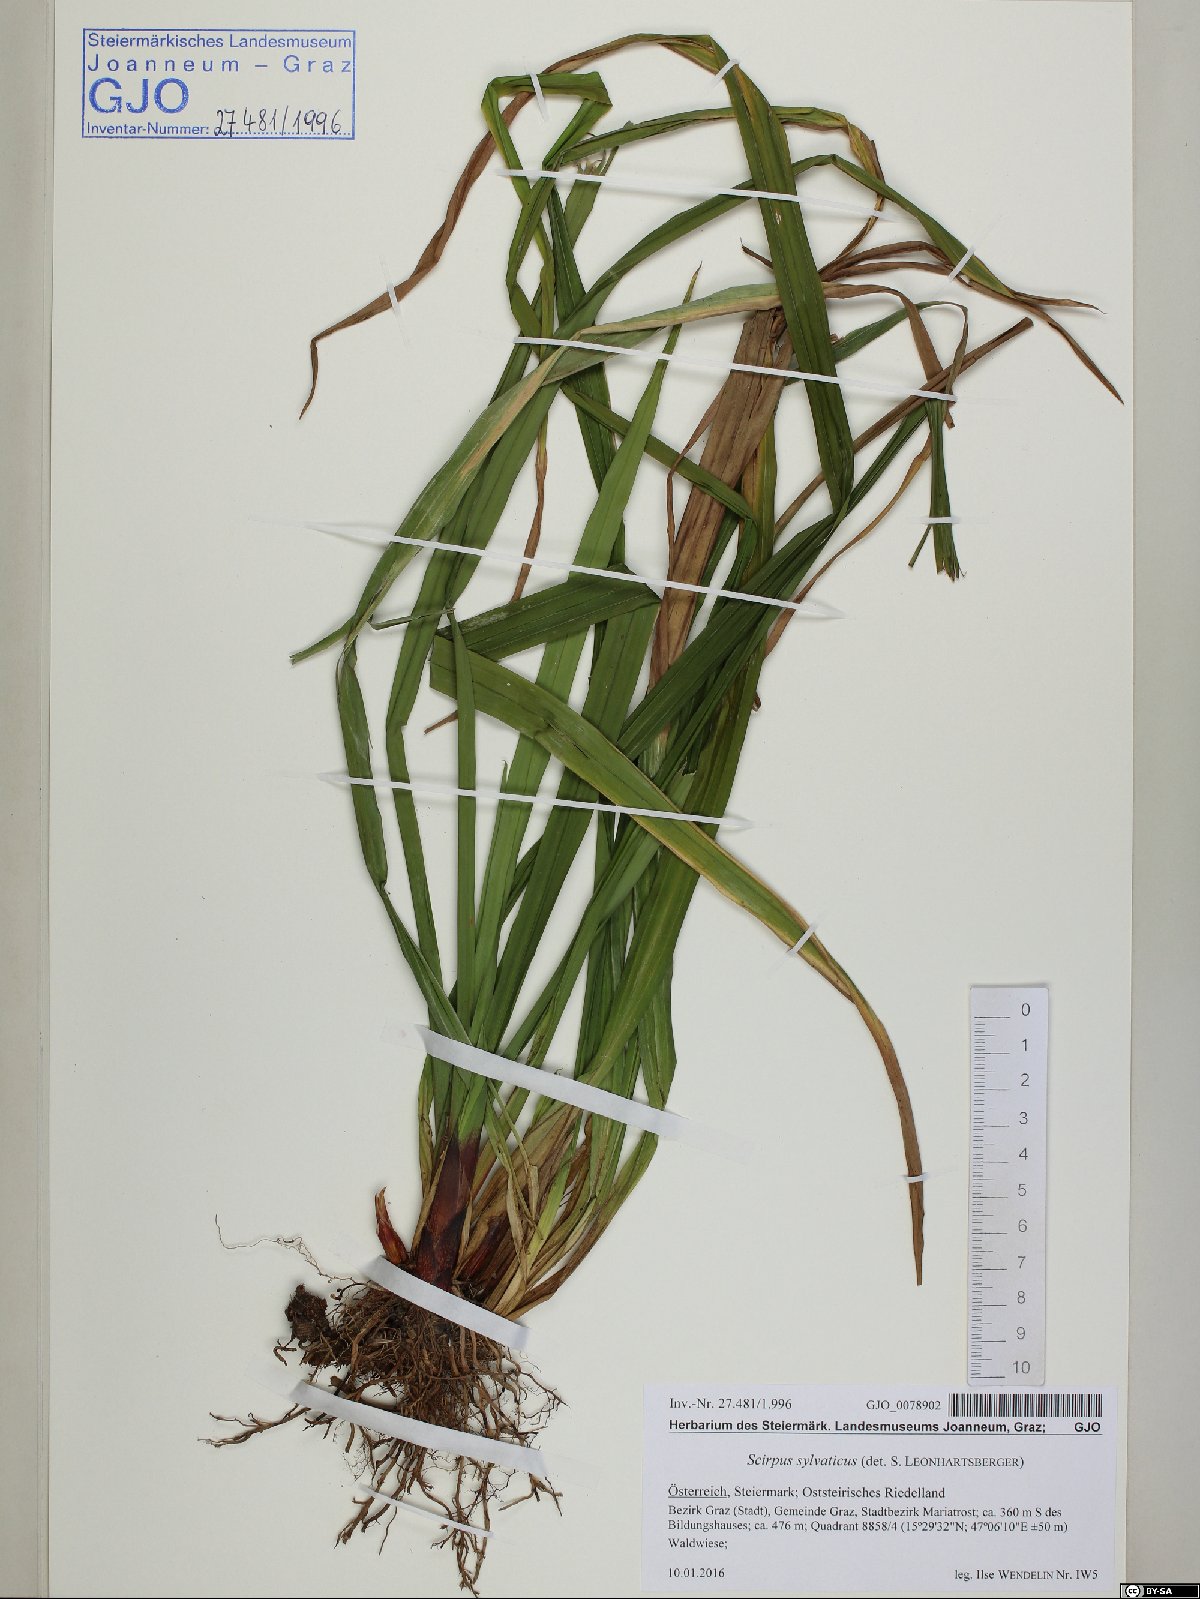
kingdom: Plantae
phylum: Tracheophyta
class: Liliopsida
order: Poales
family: Cyperaceae
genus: Scirpus
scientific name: Scirpus sylvaticus
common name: Wood club-rush
